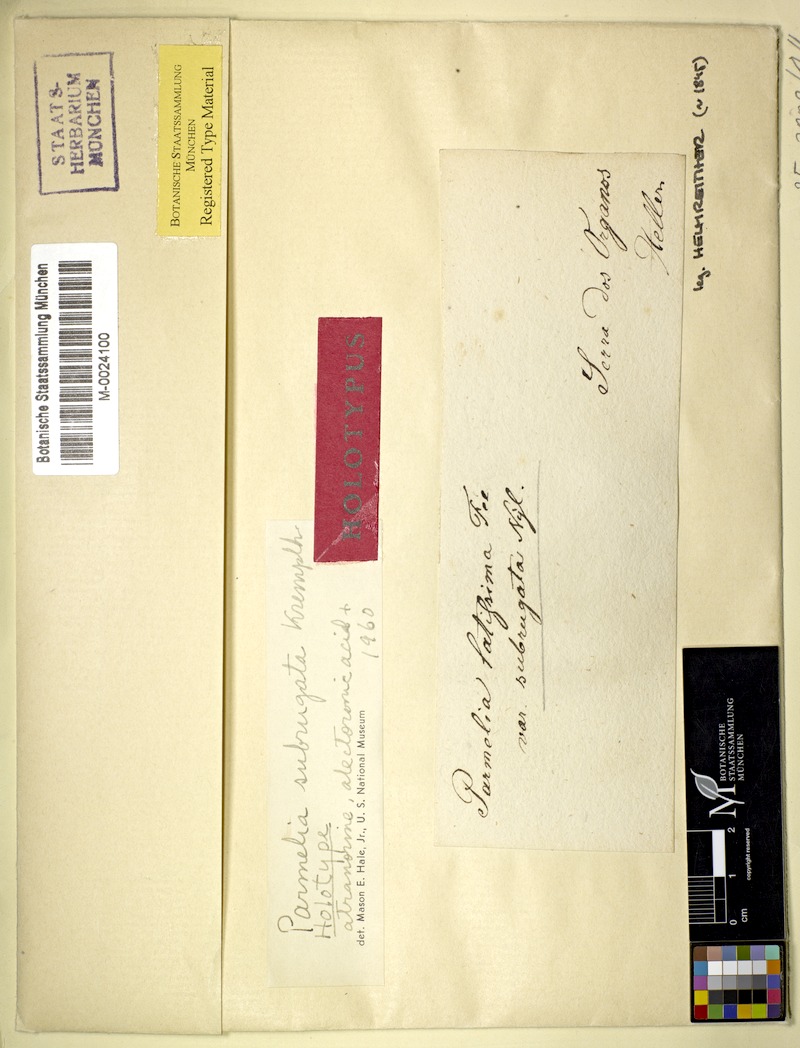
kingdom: Fungi
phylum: Ascomycota
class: Lecanoromycetes
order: Lecanorales
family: Parmeliaceae
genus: Parmotrema
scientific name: Parmotrema subrugatum
